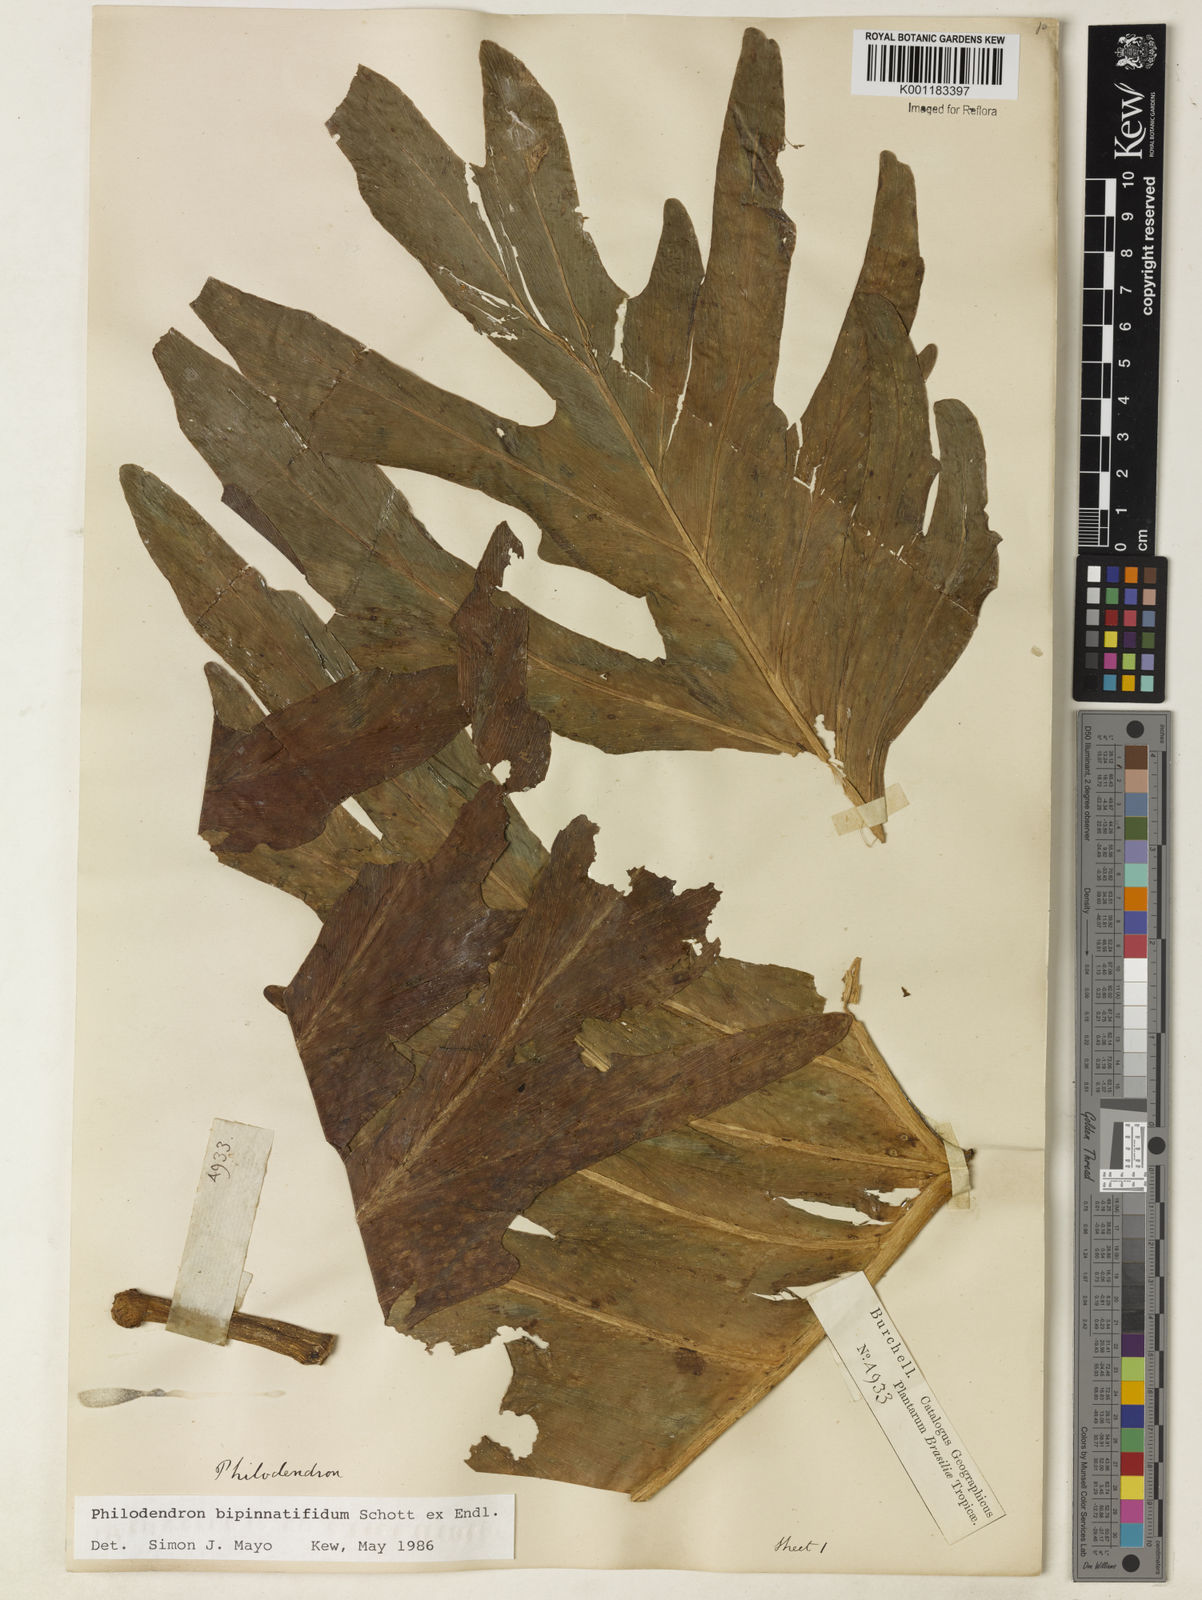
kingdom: Plantae
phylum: Tracheophyta
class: Liliopsida
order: Alismatales
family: Araceae
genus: Philodendron
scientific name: Philodendron
